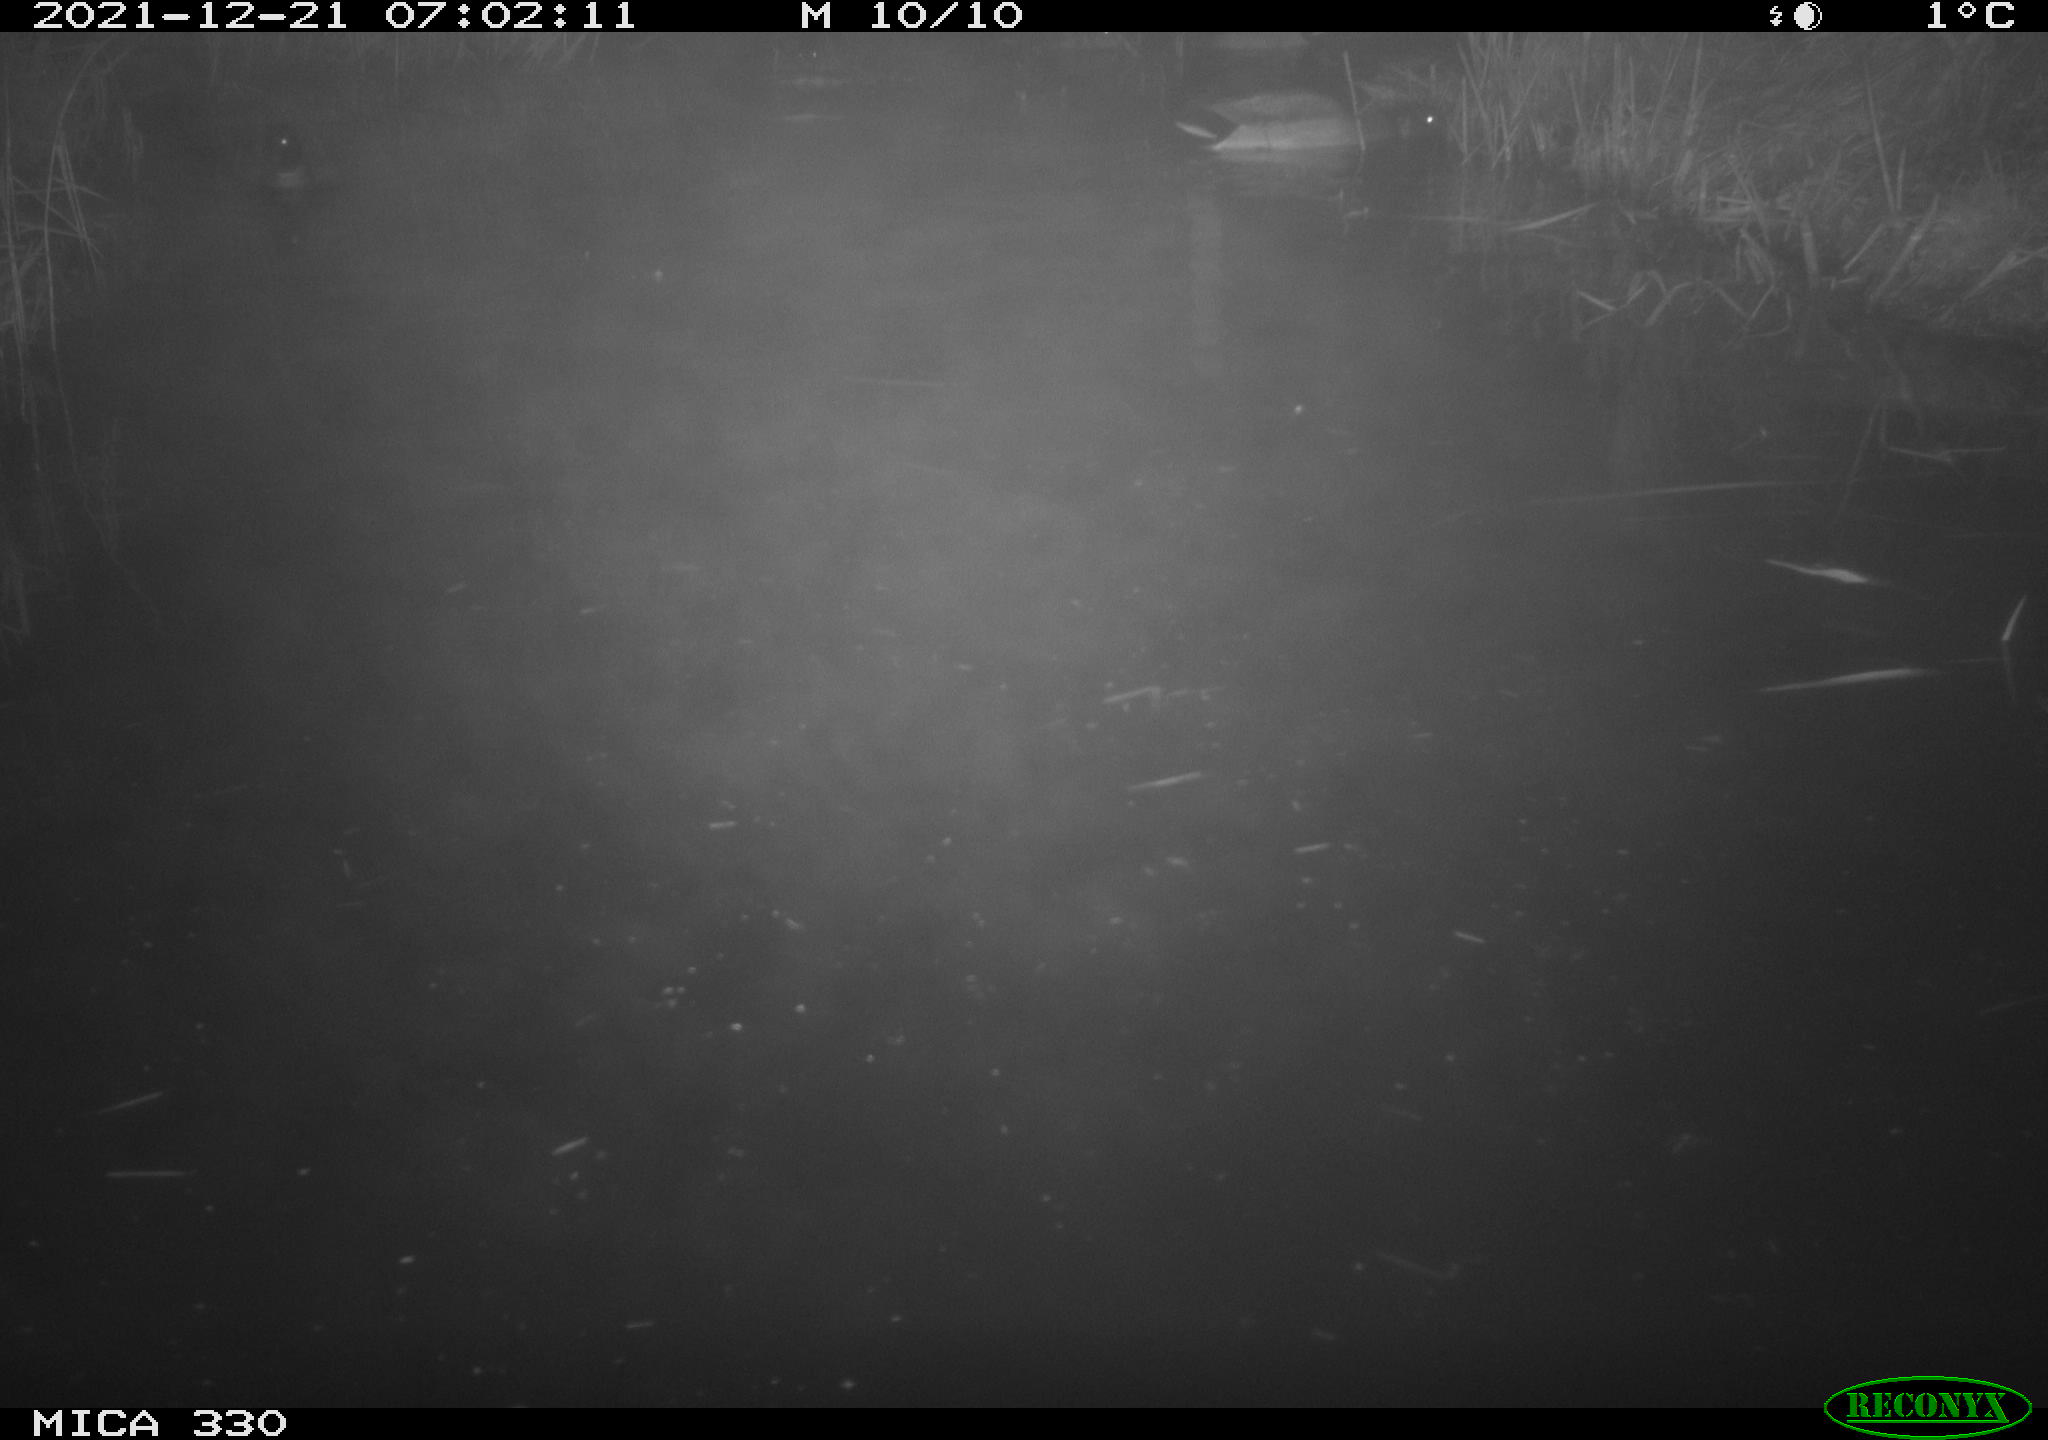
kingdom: Animalia
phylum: Chordata
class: Aves
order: Anseriformes
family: Anatidae
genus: Anas
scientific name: Anas platyrhynchos
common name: Mallard
